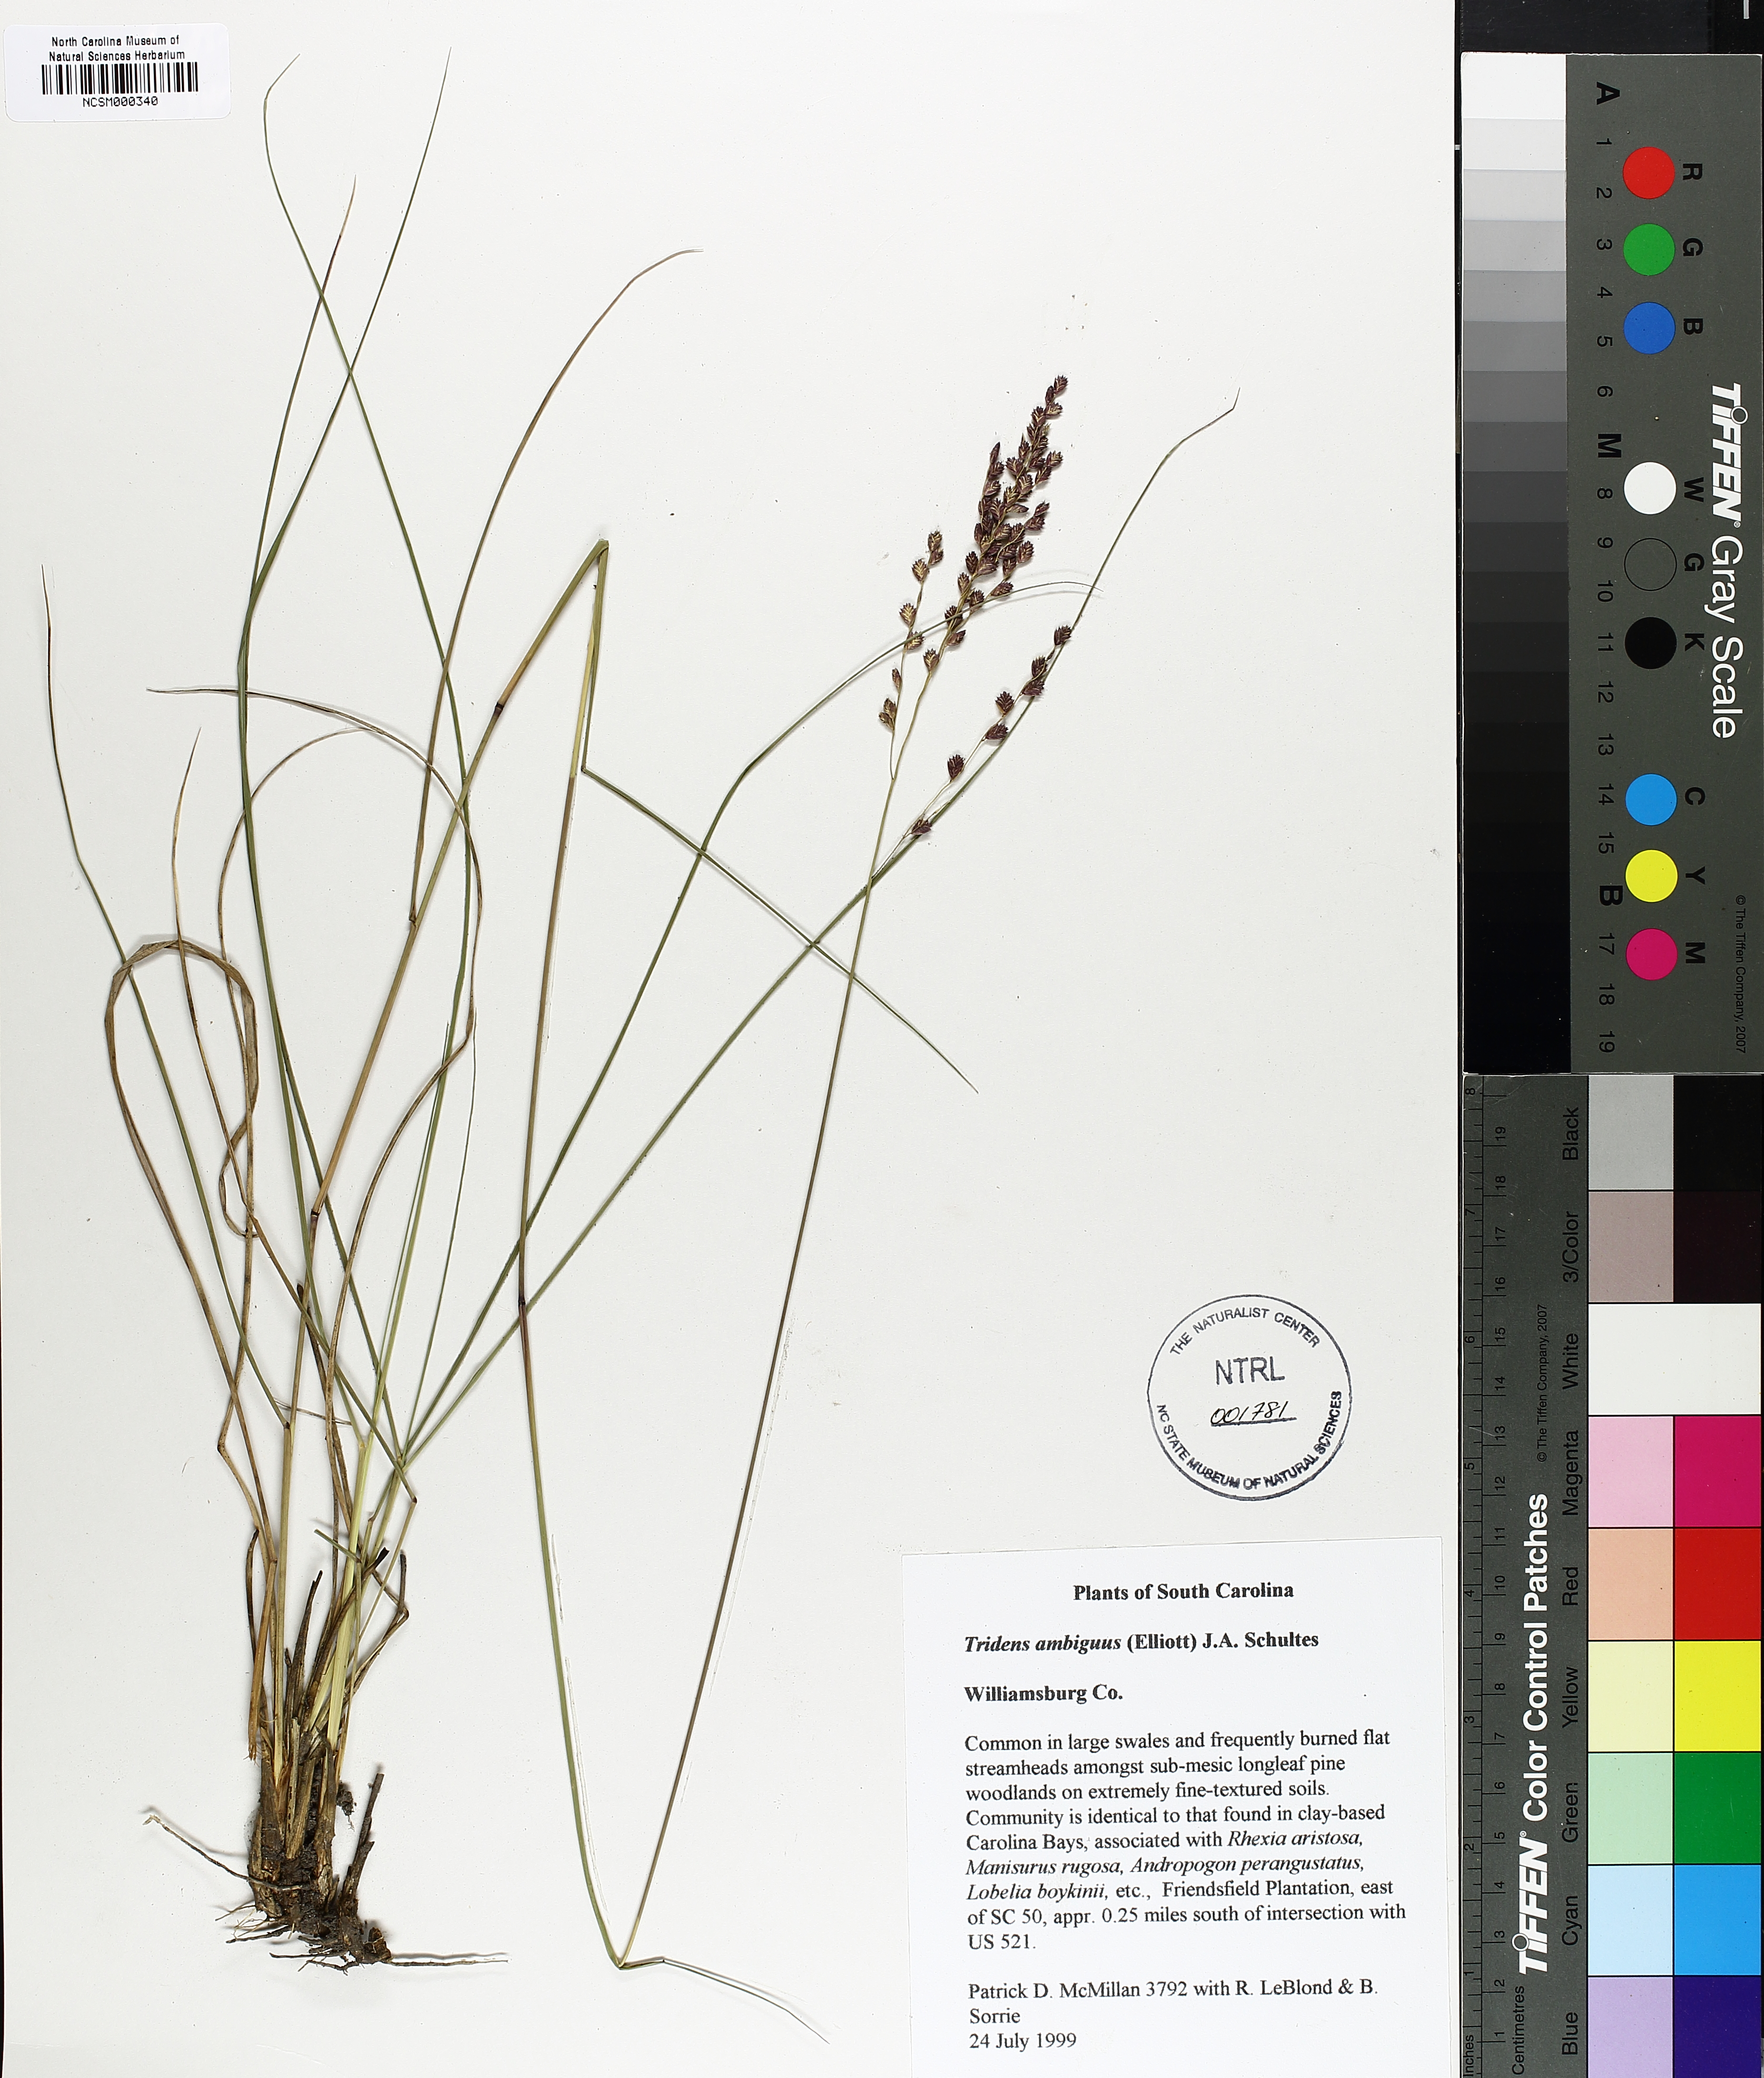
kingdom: Plantae
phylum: Tracheophyta
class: Liliopsida
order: Poales
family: Poaceae
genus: Tridens
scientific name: Tridens ambiguus
